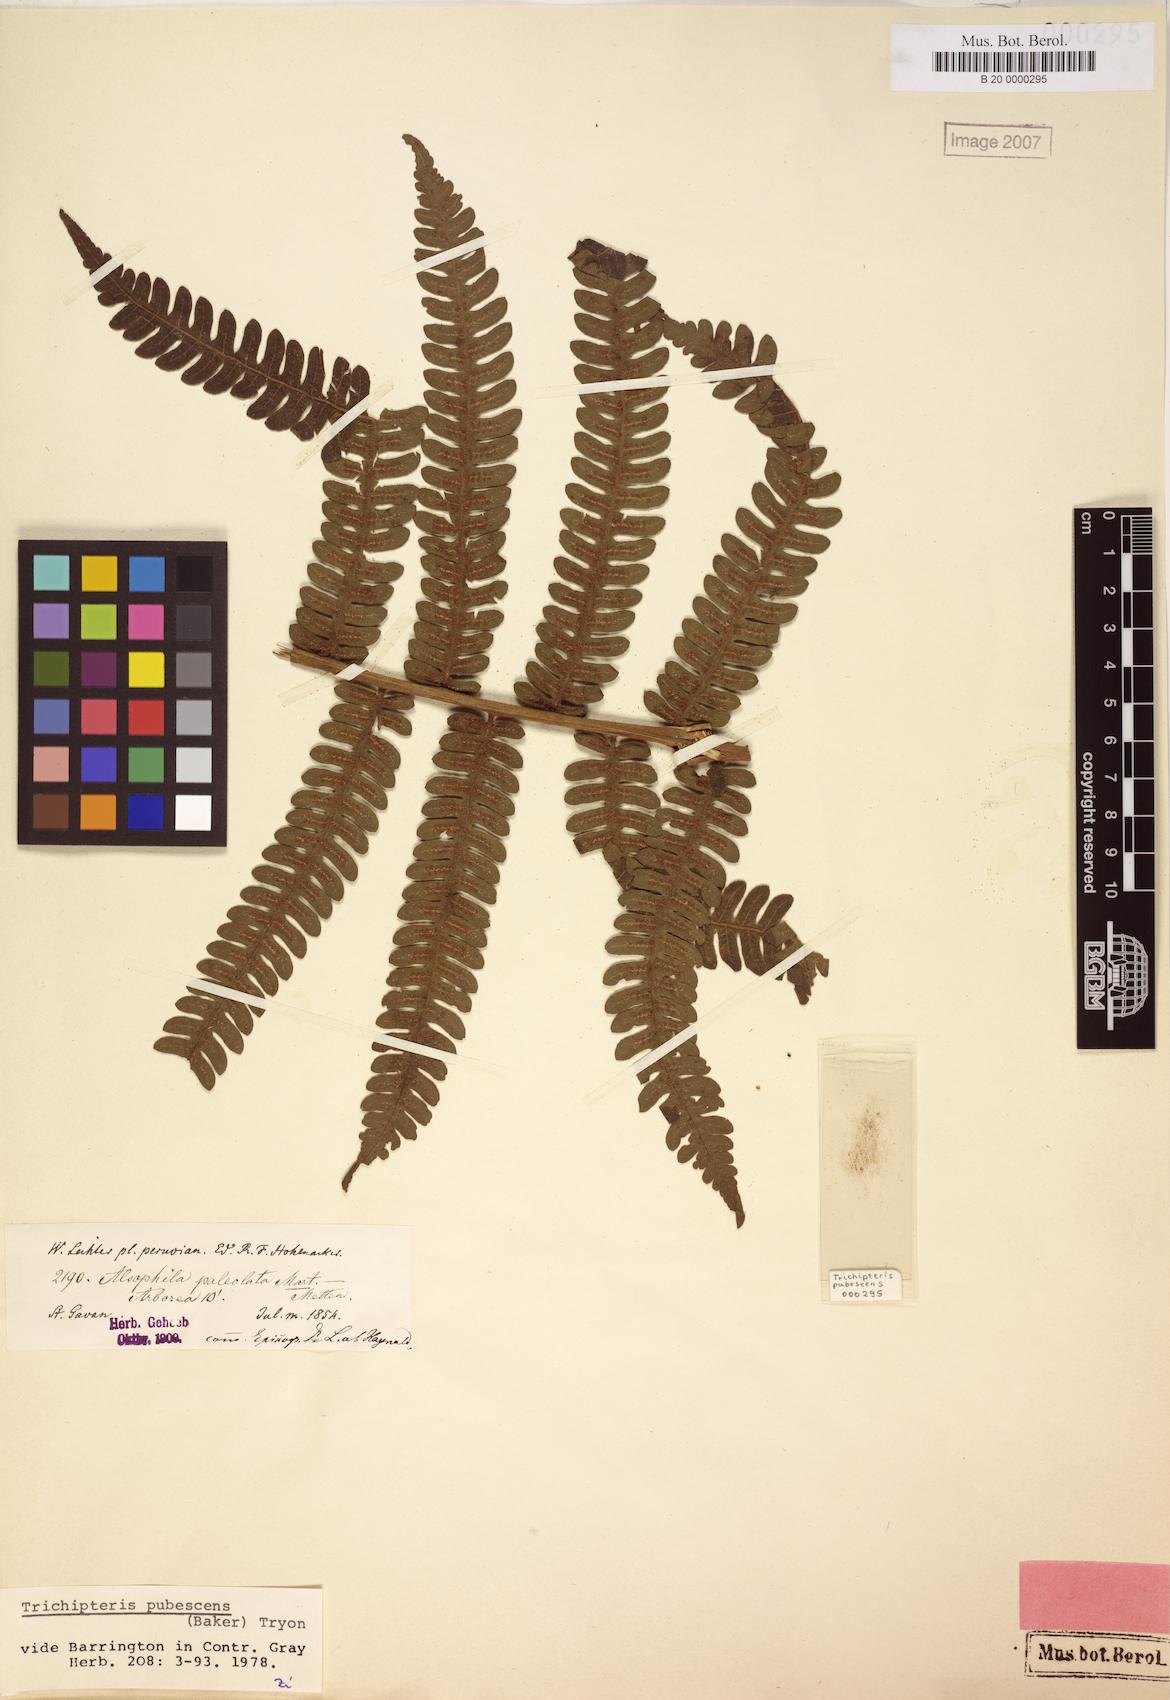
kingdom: Plantae
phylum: Tracheophyta
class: Polypodiopsida
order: Cyatheales
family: Cyatheaceae
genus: Cyathea
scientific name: Cyathea bipinnatifida
